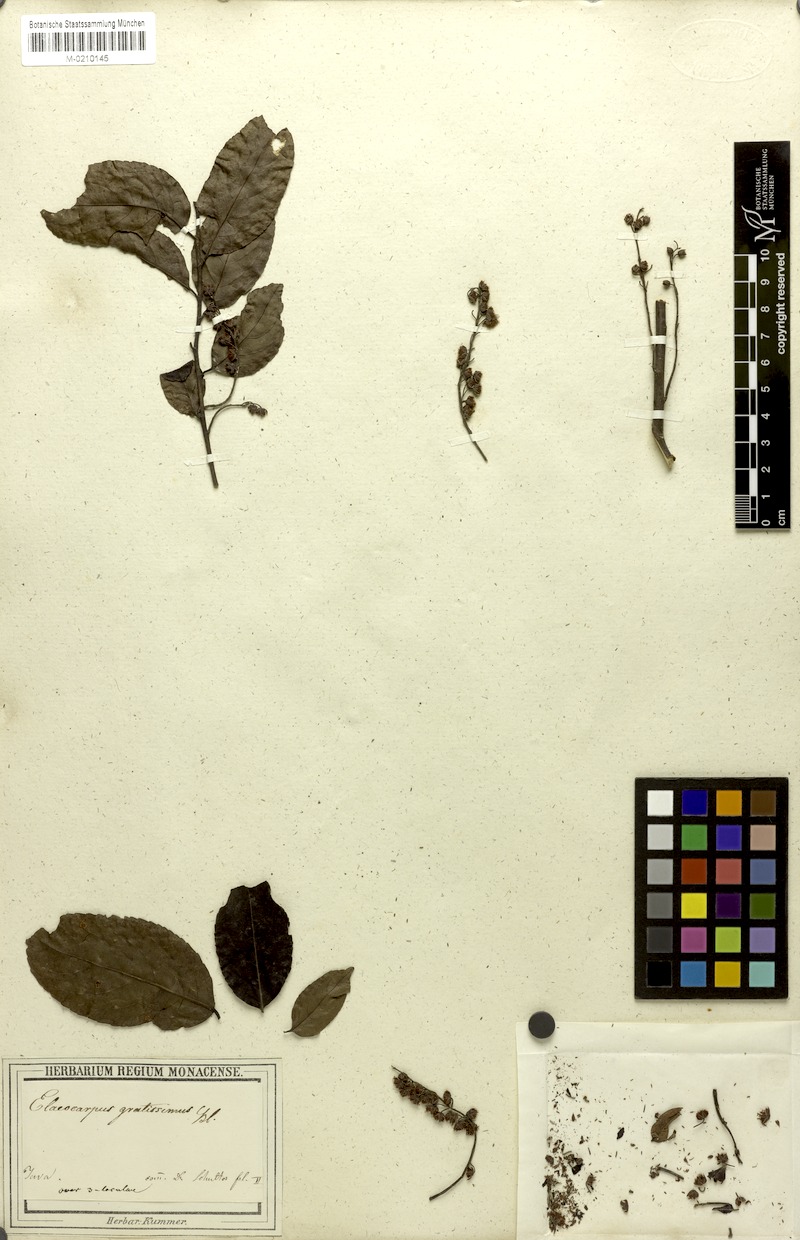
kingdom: Plantae
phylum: Tracheophyta
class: Magnoliopsida
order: Oxalidales
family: Elaeocarpaceae
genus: Elaeocarpus
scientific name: Elaeocarpus
